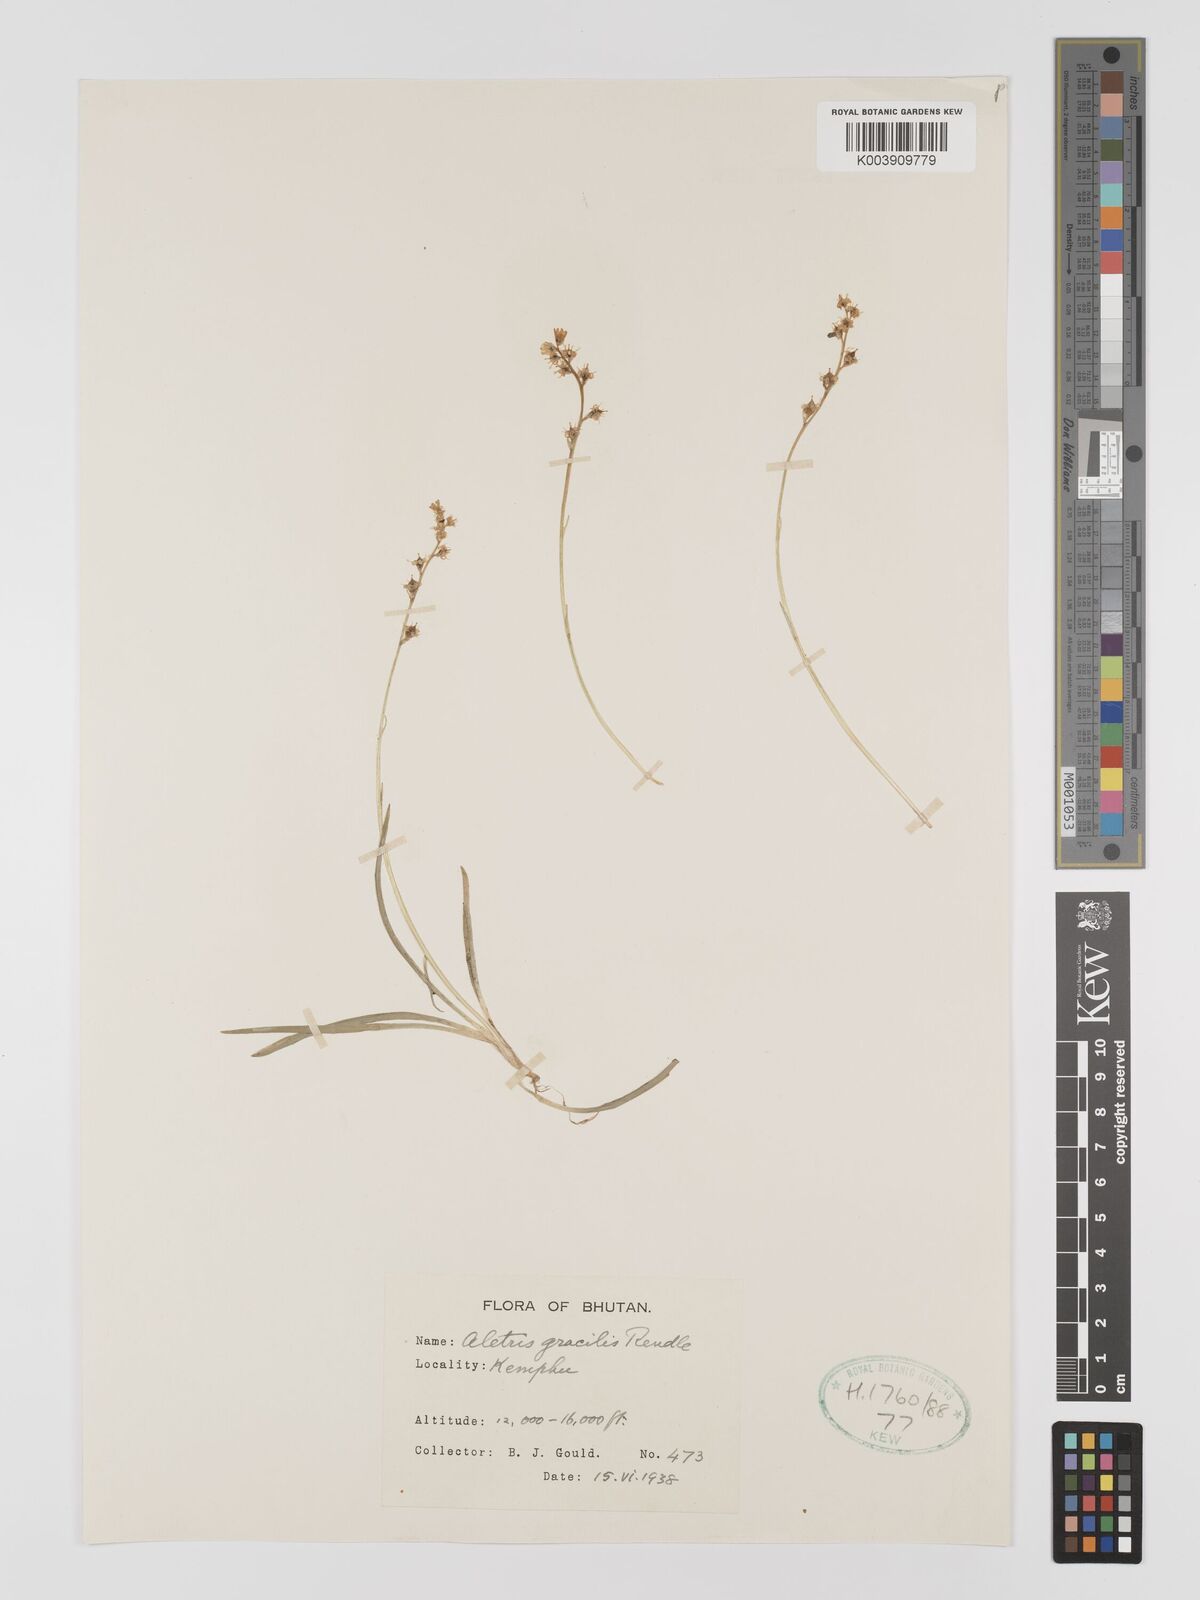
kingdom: Plantae
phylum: Tracheophyta
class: Liliopsida
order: Dioscoreales
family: Nartheciaceae
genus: Aletris
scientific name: Aletris gracilis
